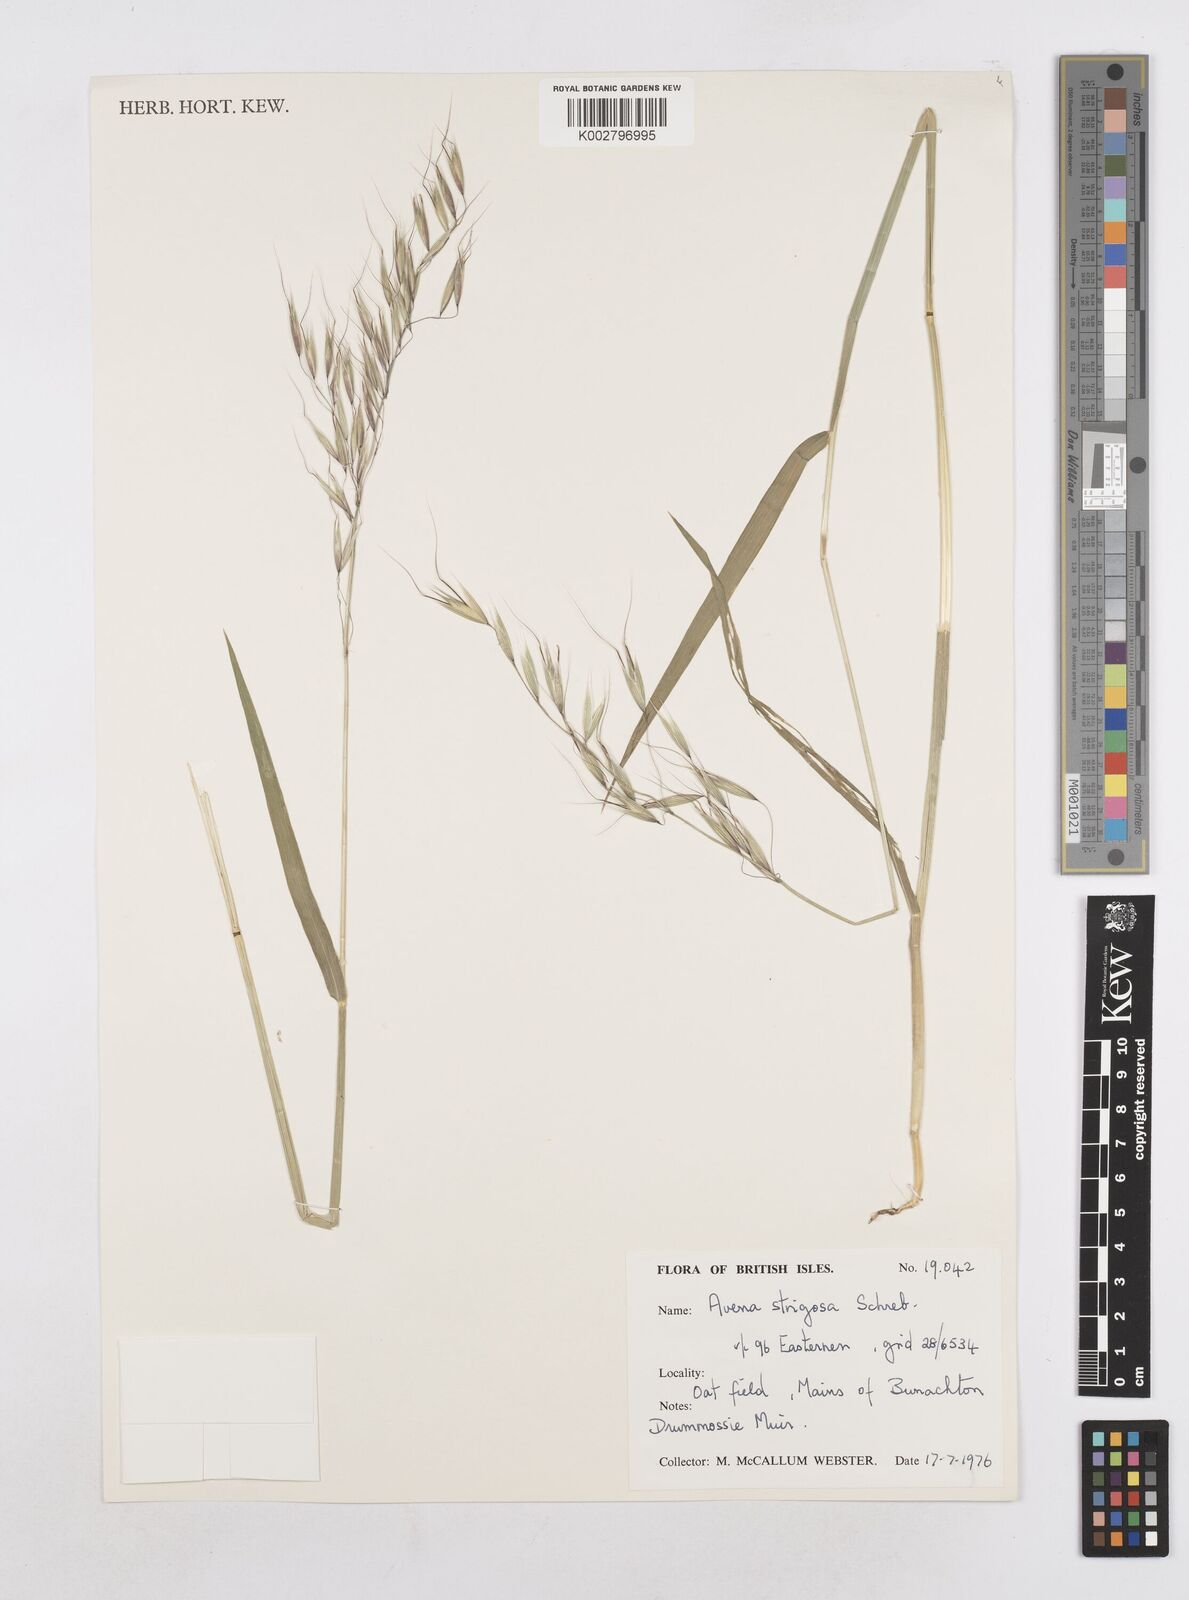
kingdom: Plantae
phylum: Tracheophyta
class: Liliopsida
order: Poales
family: Poaceae
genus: Avena
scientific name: Avena strigosa
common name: Bristle oat
